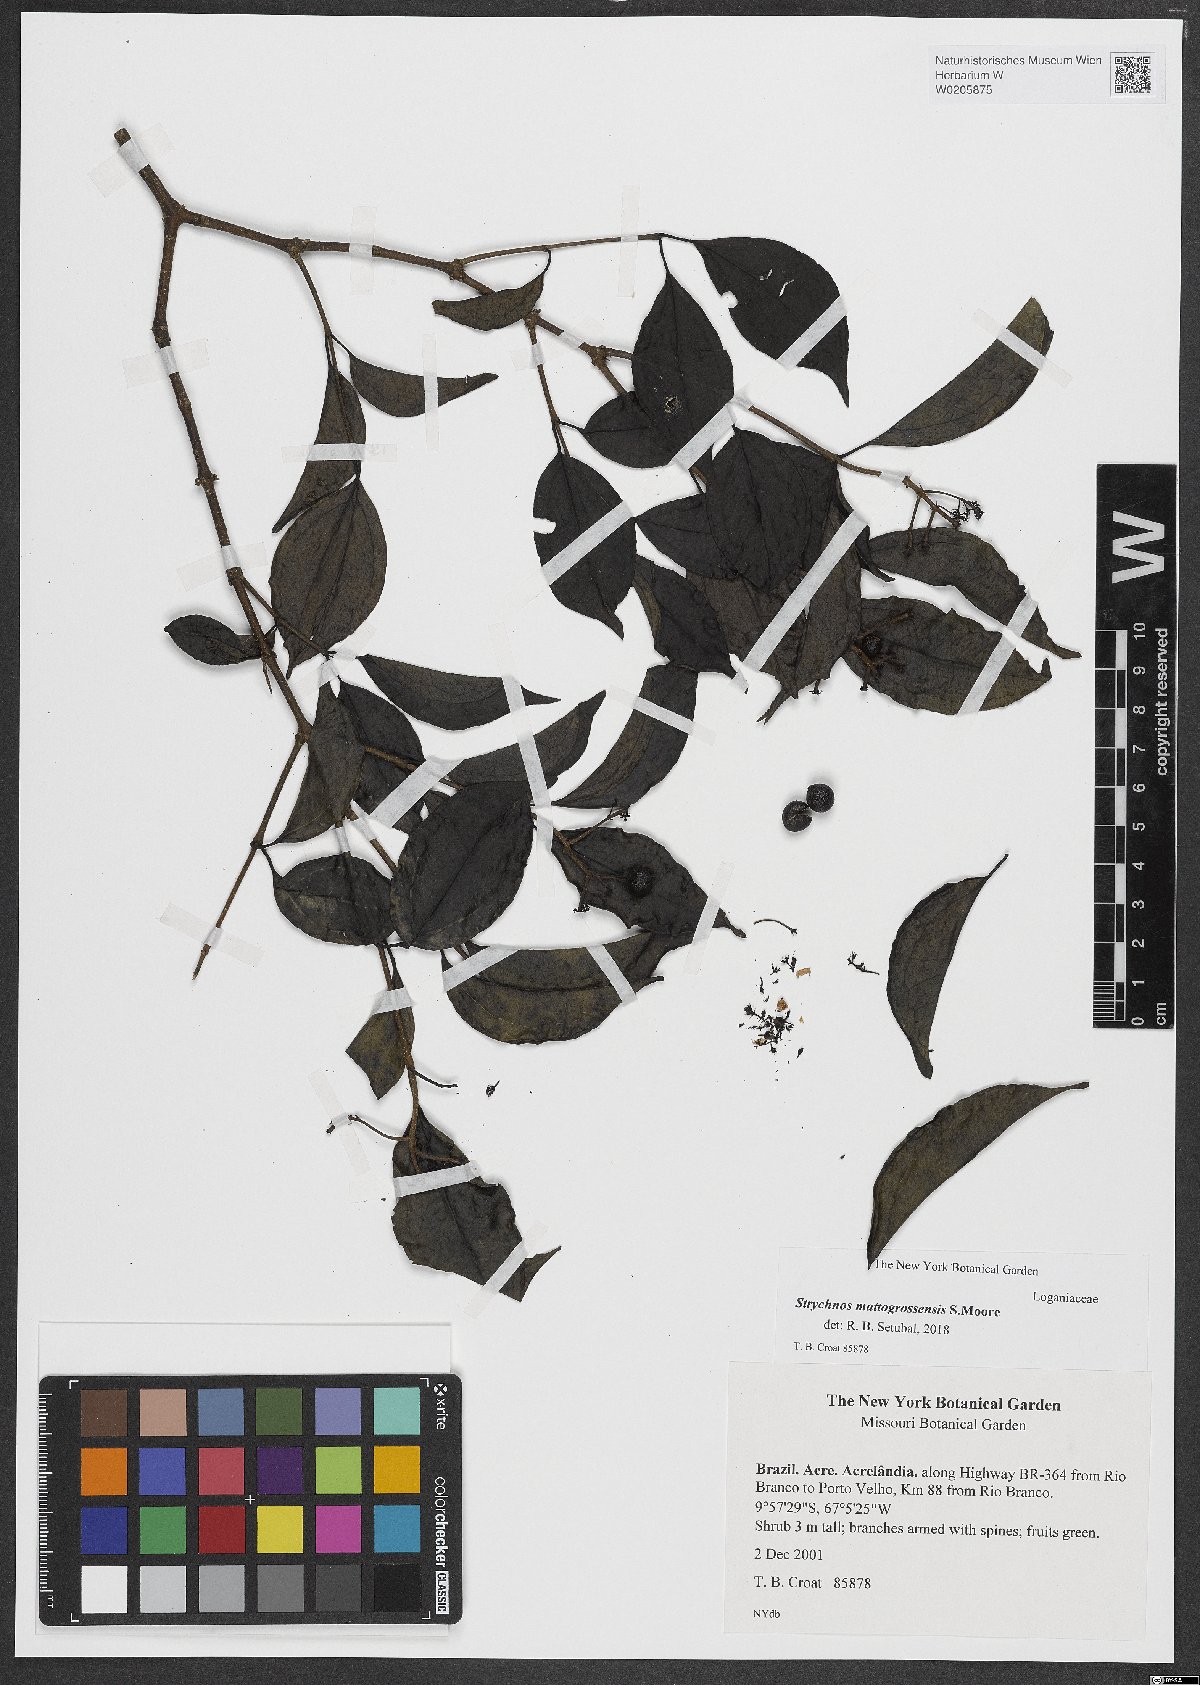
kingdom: Plantae
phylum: Tracheophyta
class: Magnoliopsida
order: Gentianales
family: Loganiaceae
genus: Strychnos
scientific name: Strychnos mattogrossensis
